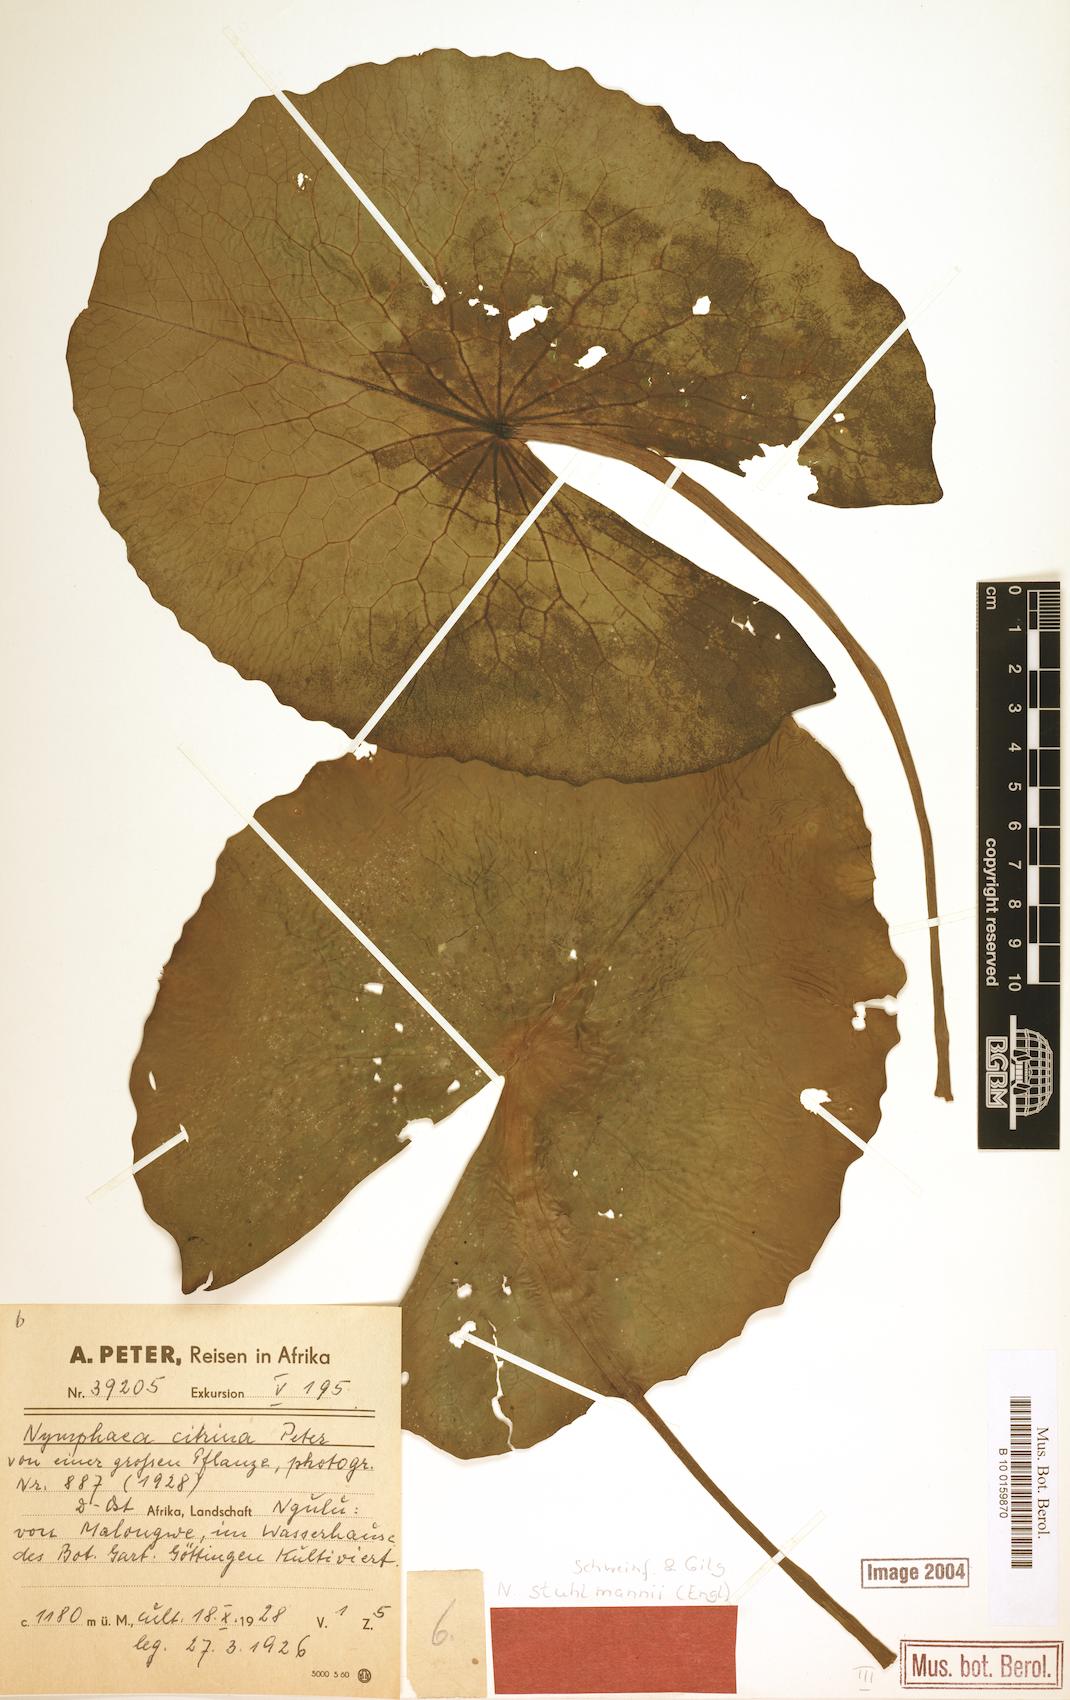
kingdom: Plantae
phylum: Tracheophyta
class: Magnoliopsida
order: Nymphaeales
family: Nymphaeaceae
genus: Nymphaea
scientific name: Nymphaea stuhlmannii
